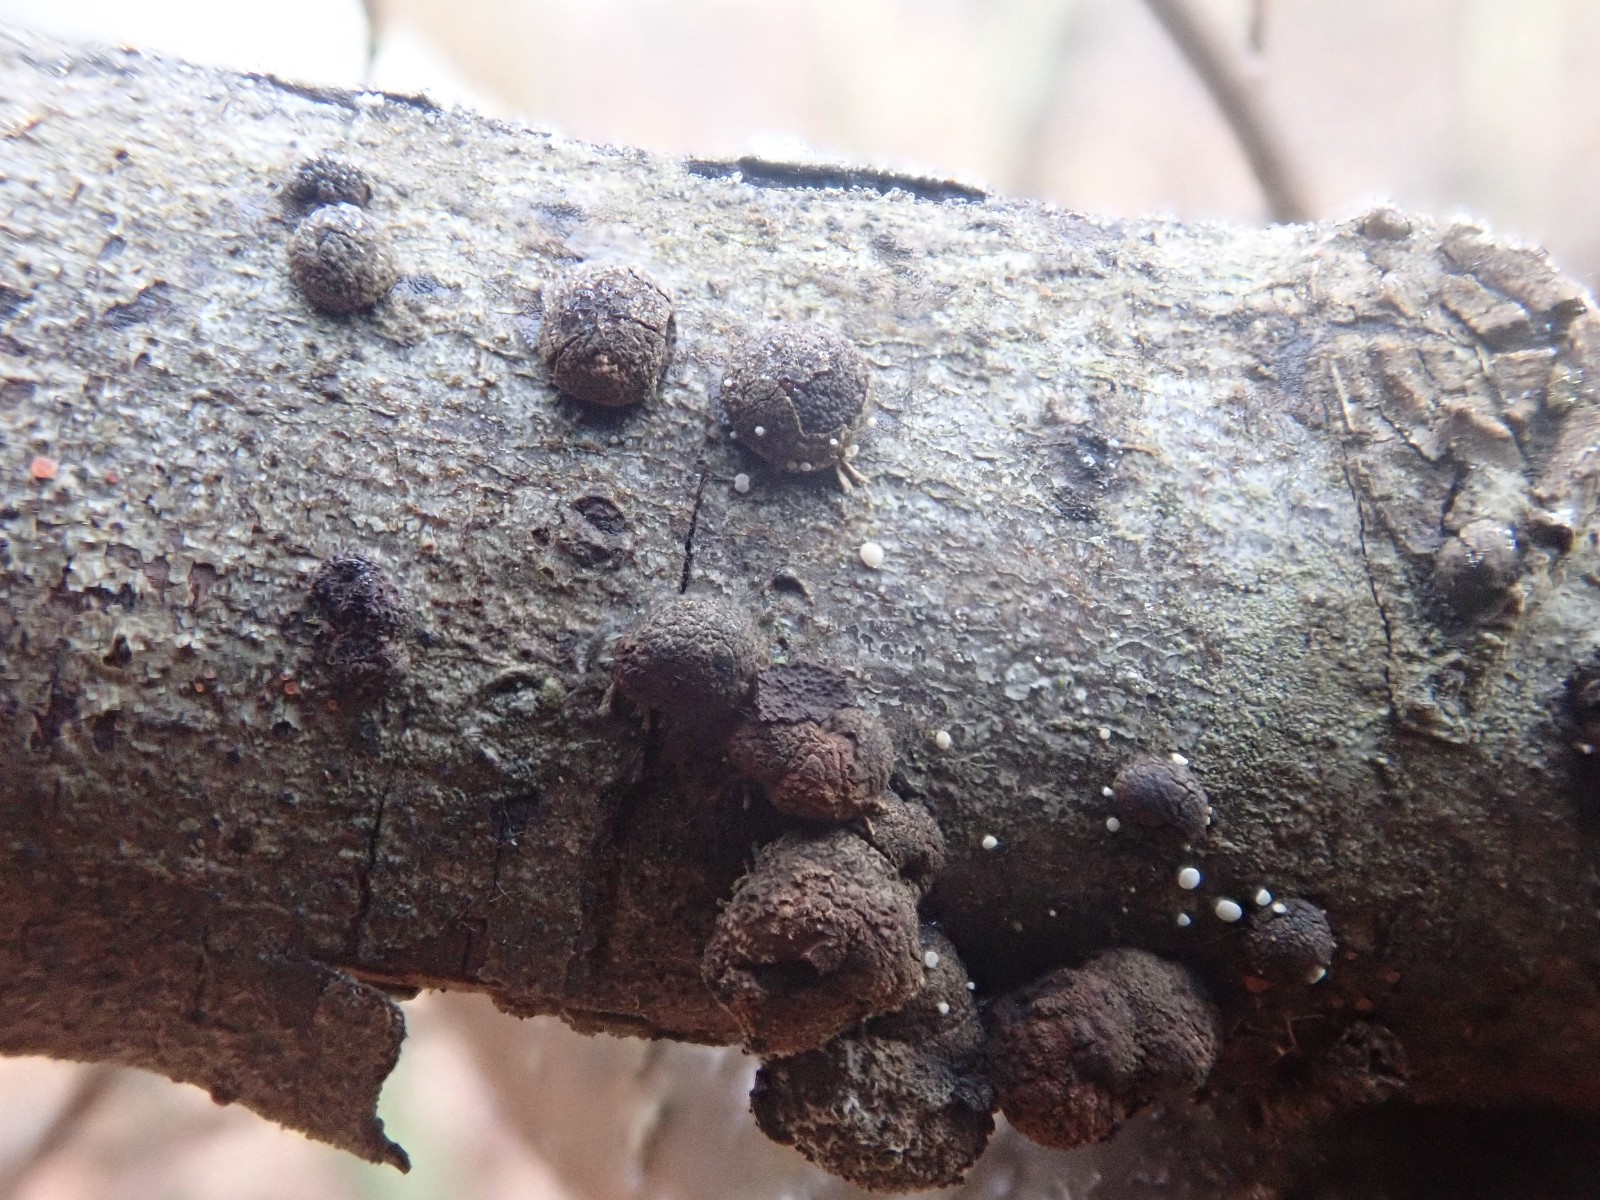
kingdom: Fungi
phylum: Ascomycota
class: Sordariomycetes
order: Xylariales
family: Hypoxylaceae
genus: Hypoxylon
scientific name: Hypoxylon fragiforme
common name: kuljordbær
